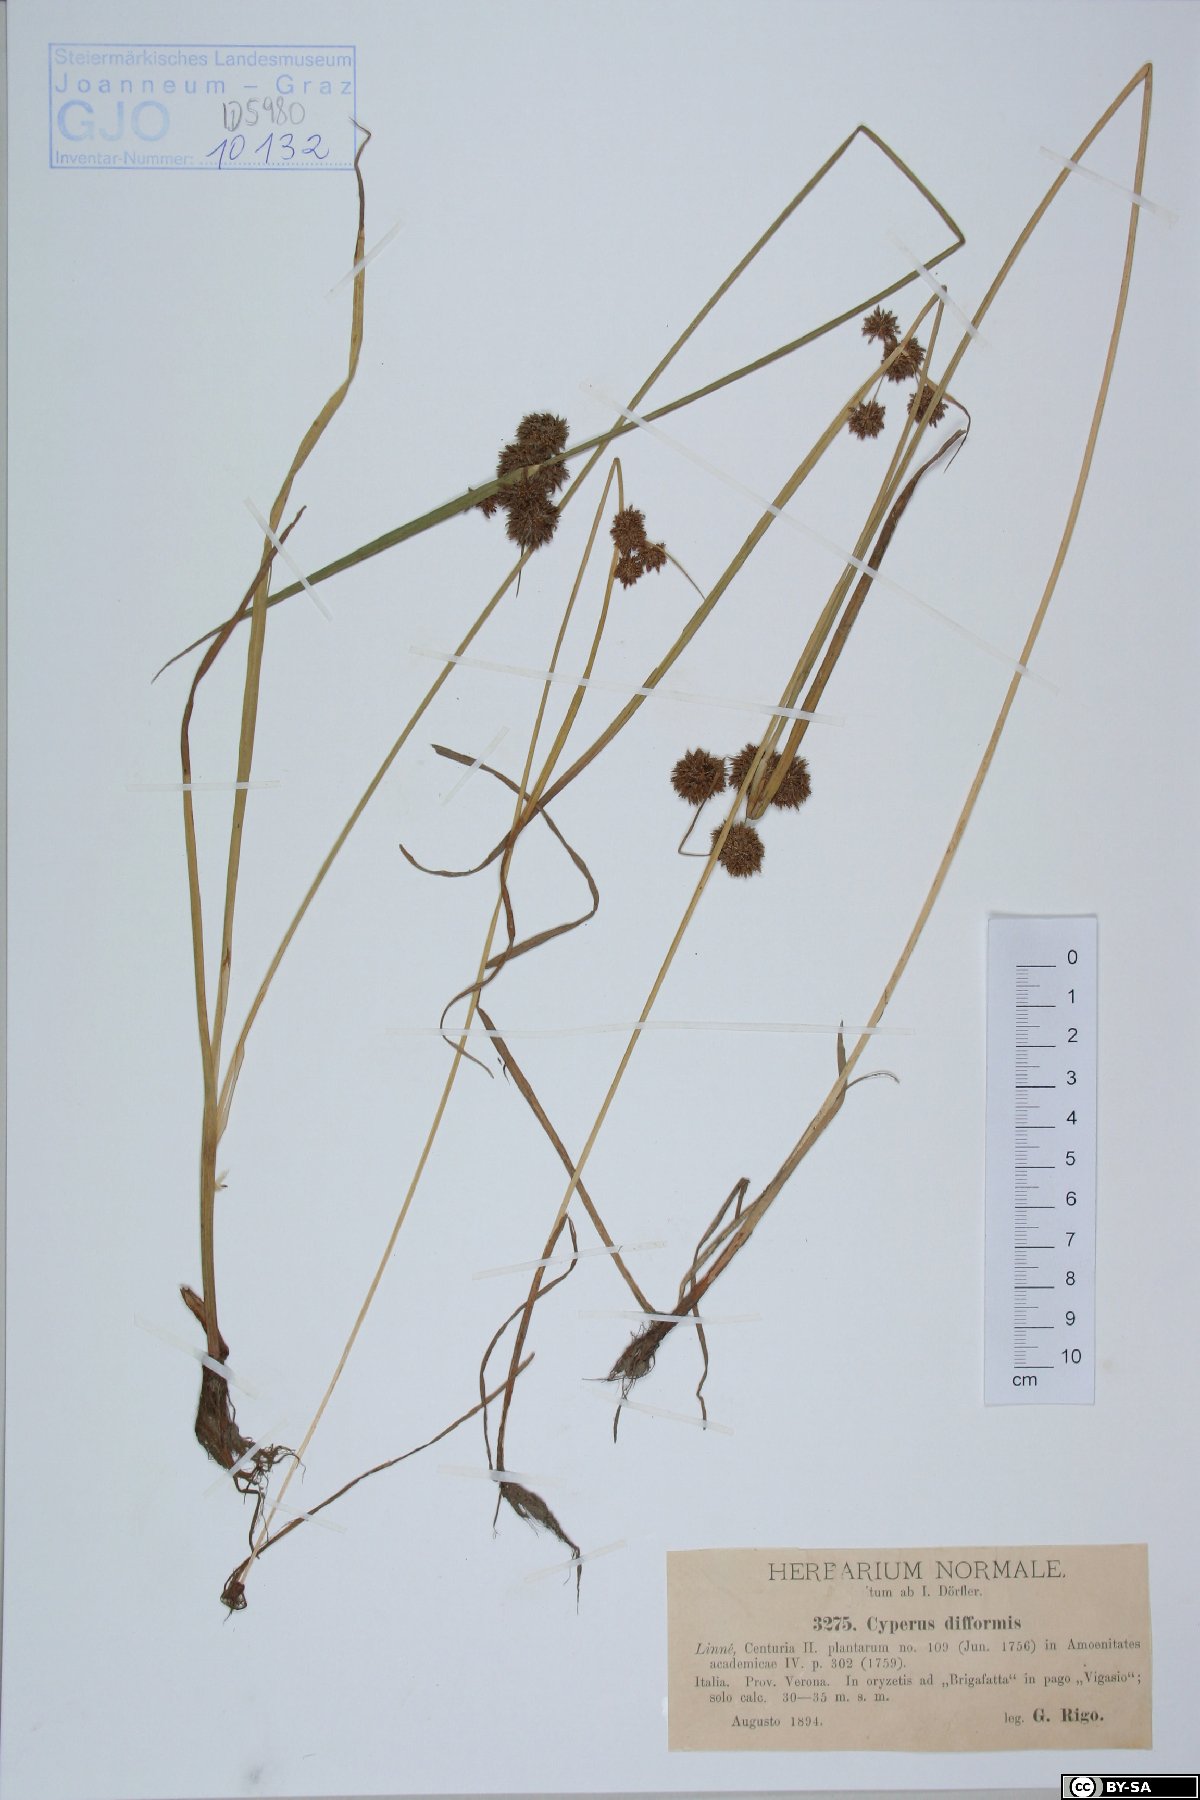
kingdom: Plantae
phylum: Tracheophyta
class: Liliopsida
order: Poales
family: Cyperaceae
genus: Cyperus
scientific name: Cyperus difformis
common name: Variable flatsedge
